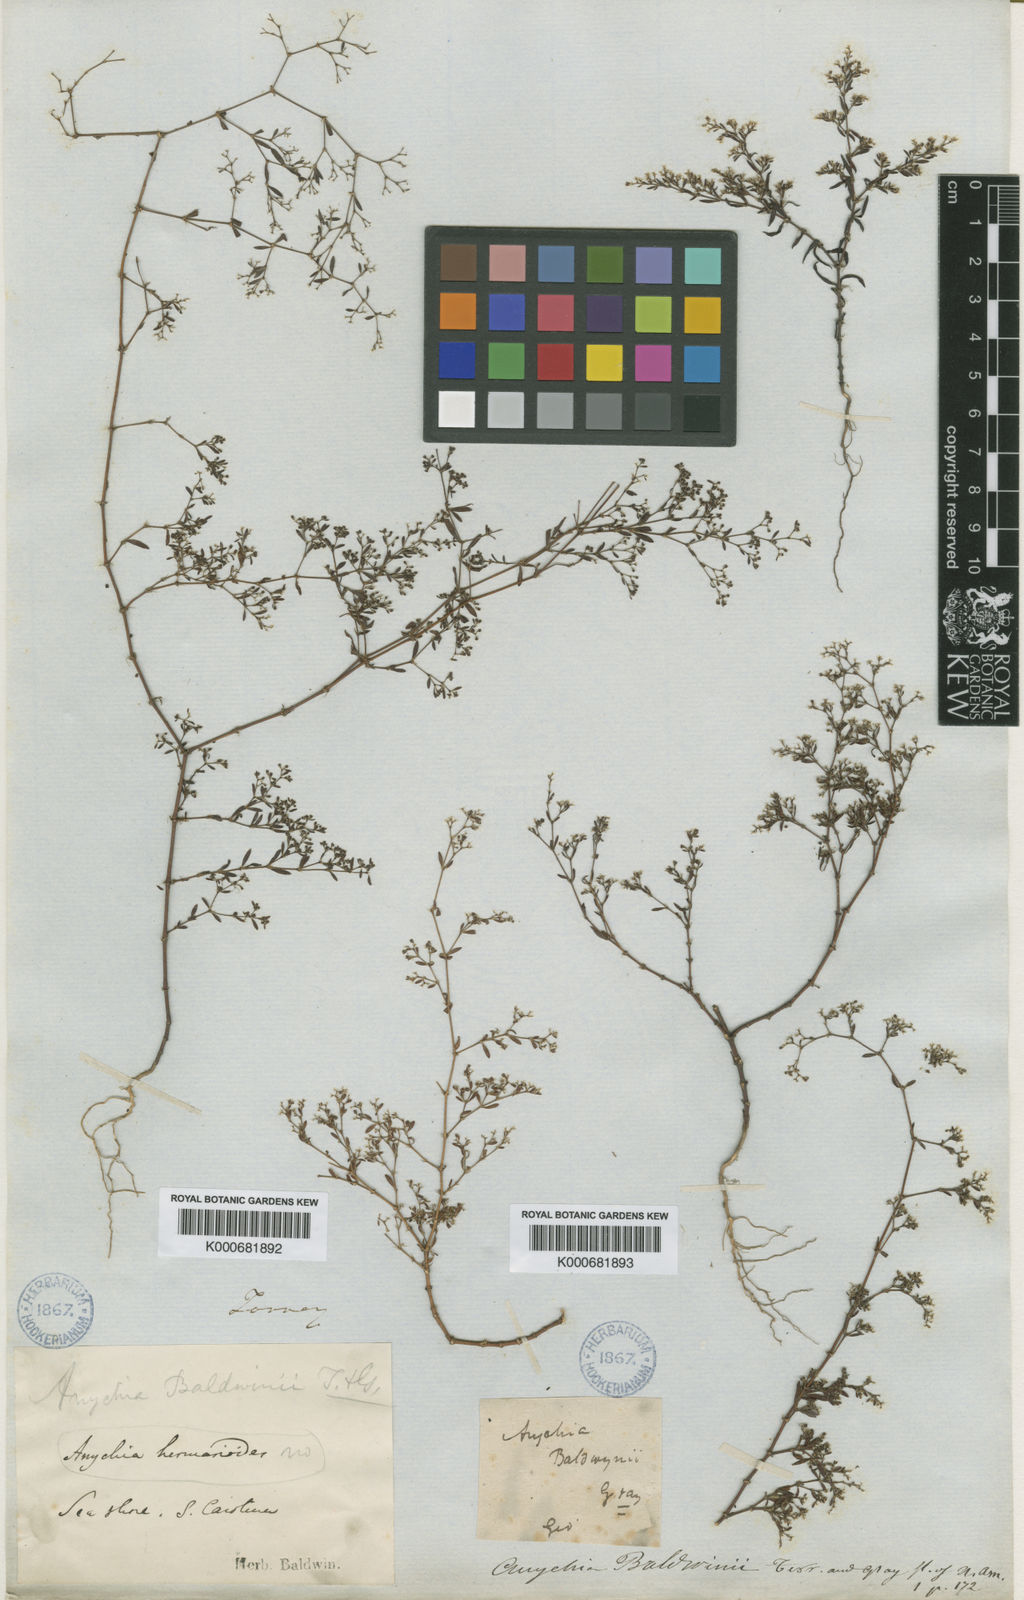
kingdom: Plantae
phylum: Tracheophyta
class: Magnoliopsida
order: Caryophyllales
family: Caryophyllaceae
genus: Paronychia
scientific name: Paronychia
